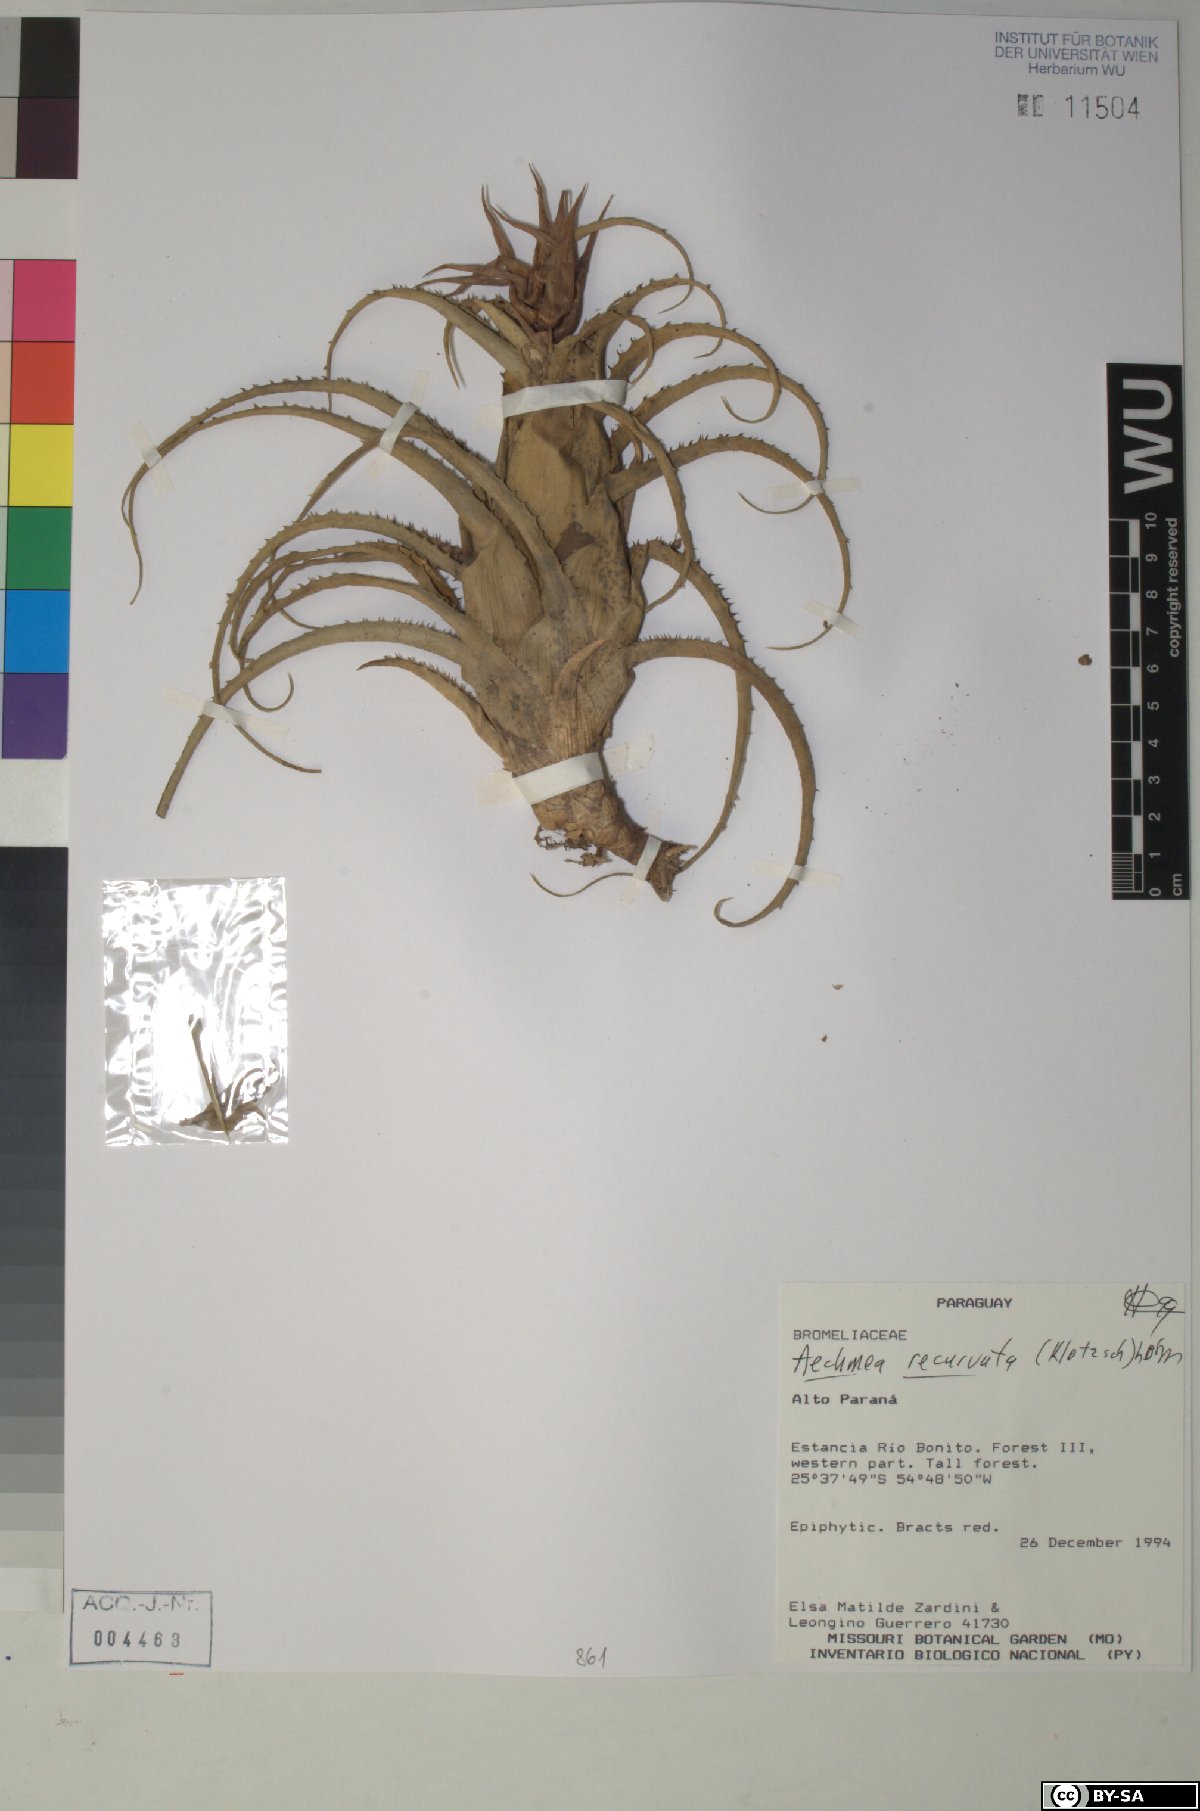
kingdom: Plantae
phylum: Tracheophyta
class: Liliopsida
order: Poales
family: Bromeliaceae
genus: Aechmea
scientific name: Aechmea recurvata
